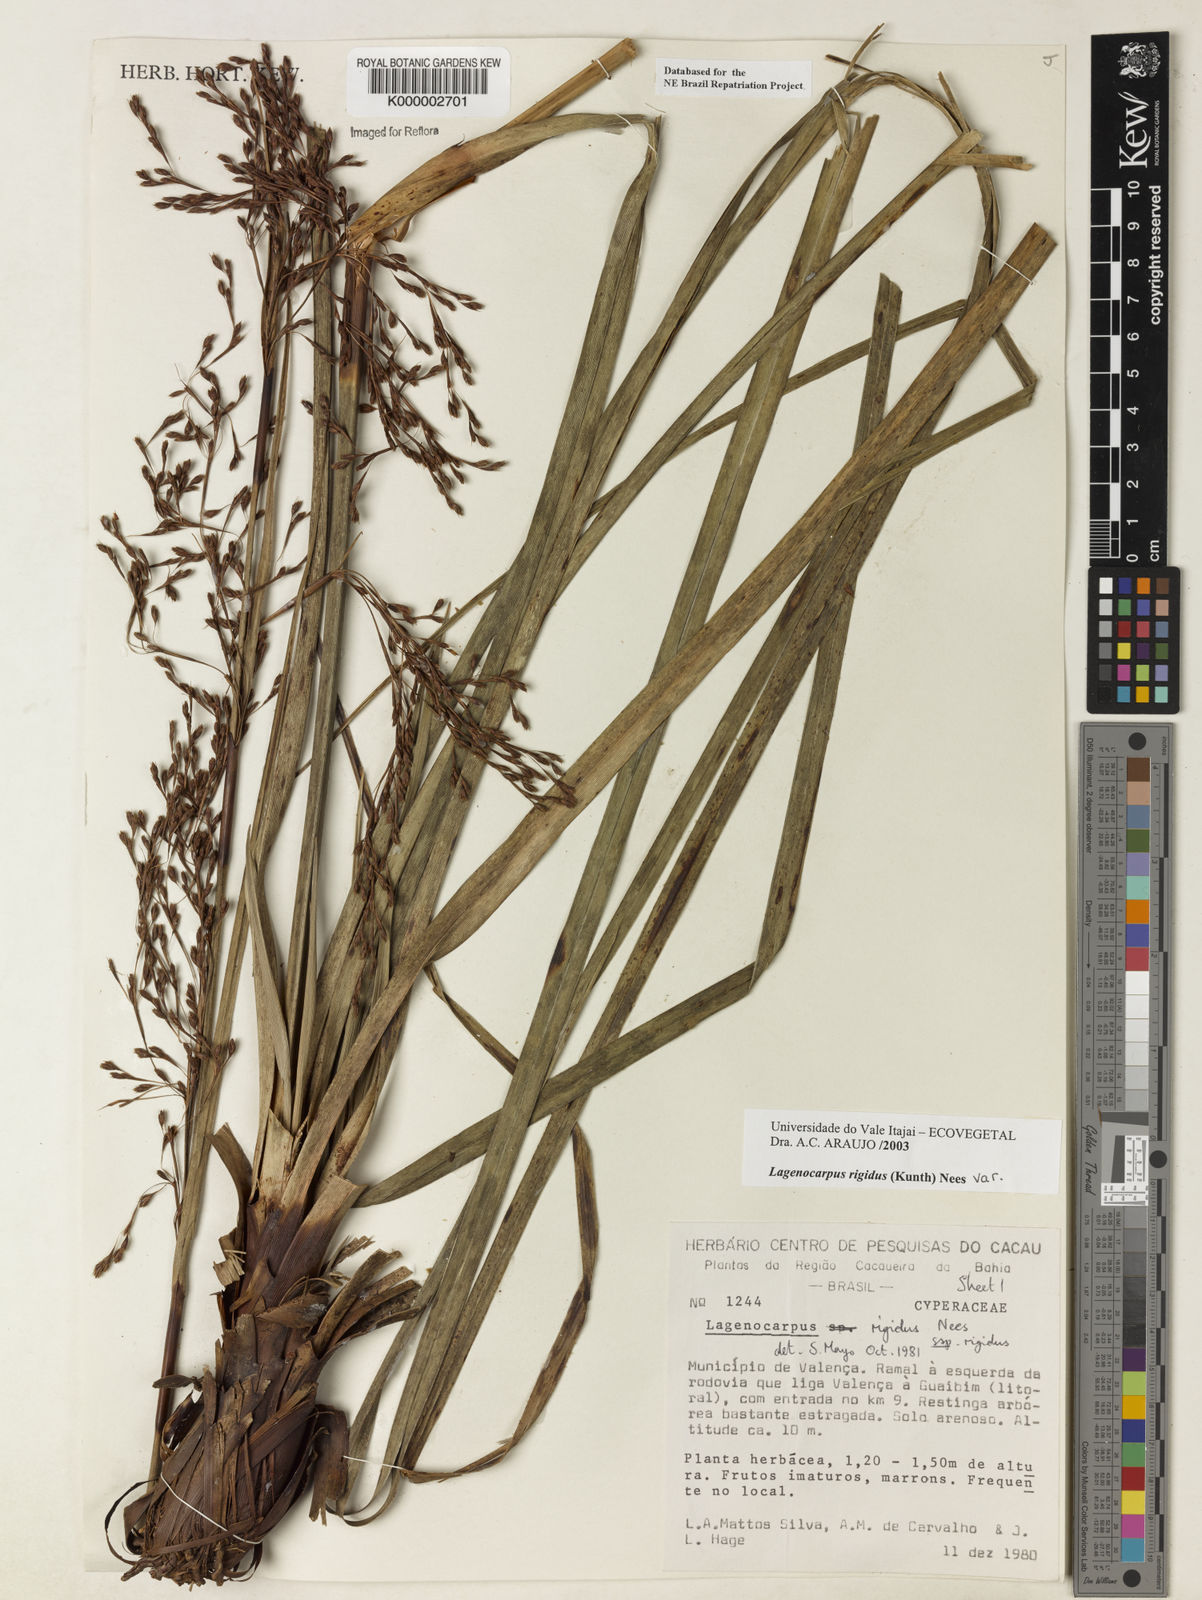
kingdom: Plantae
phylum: Tracheophyta
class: Liliopsida
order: Poales
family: Cyperaceae
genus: Lagenocarpus
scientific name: Lagenocarpus rigidus
